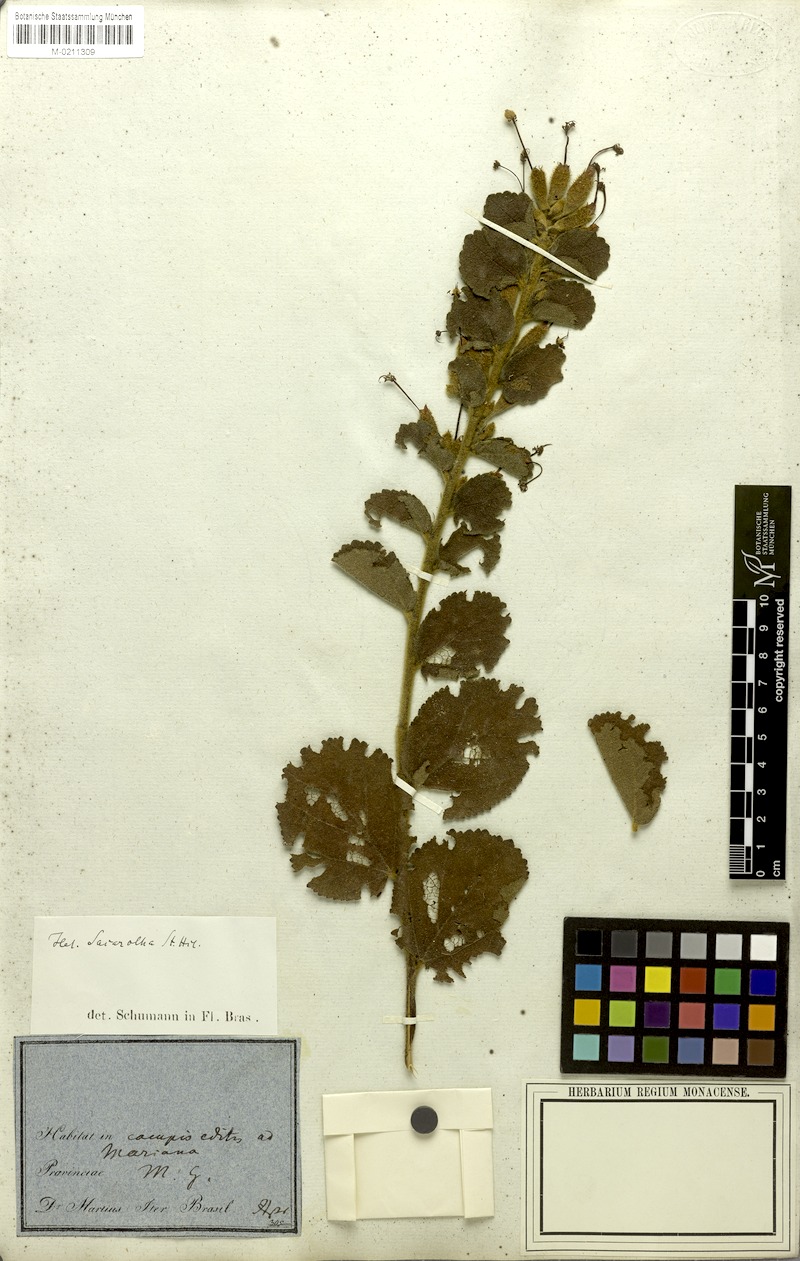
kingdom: Plantae
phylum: Tracheophyta
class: Magnoliopsida
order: Malvales
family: Malvaceae
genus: Helicteres
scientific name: Helicteres sacarolha
